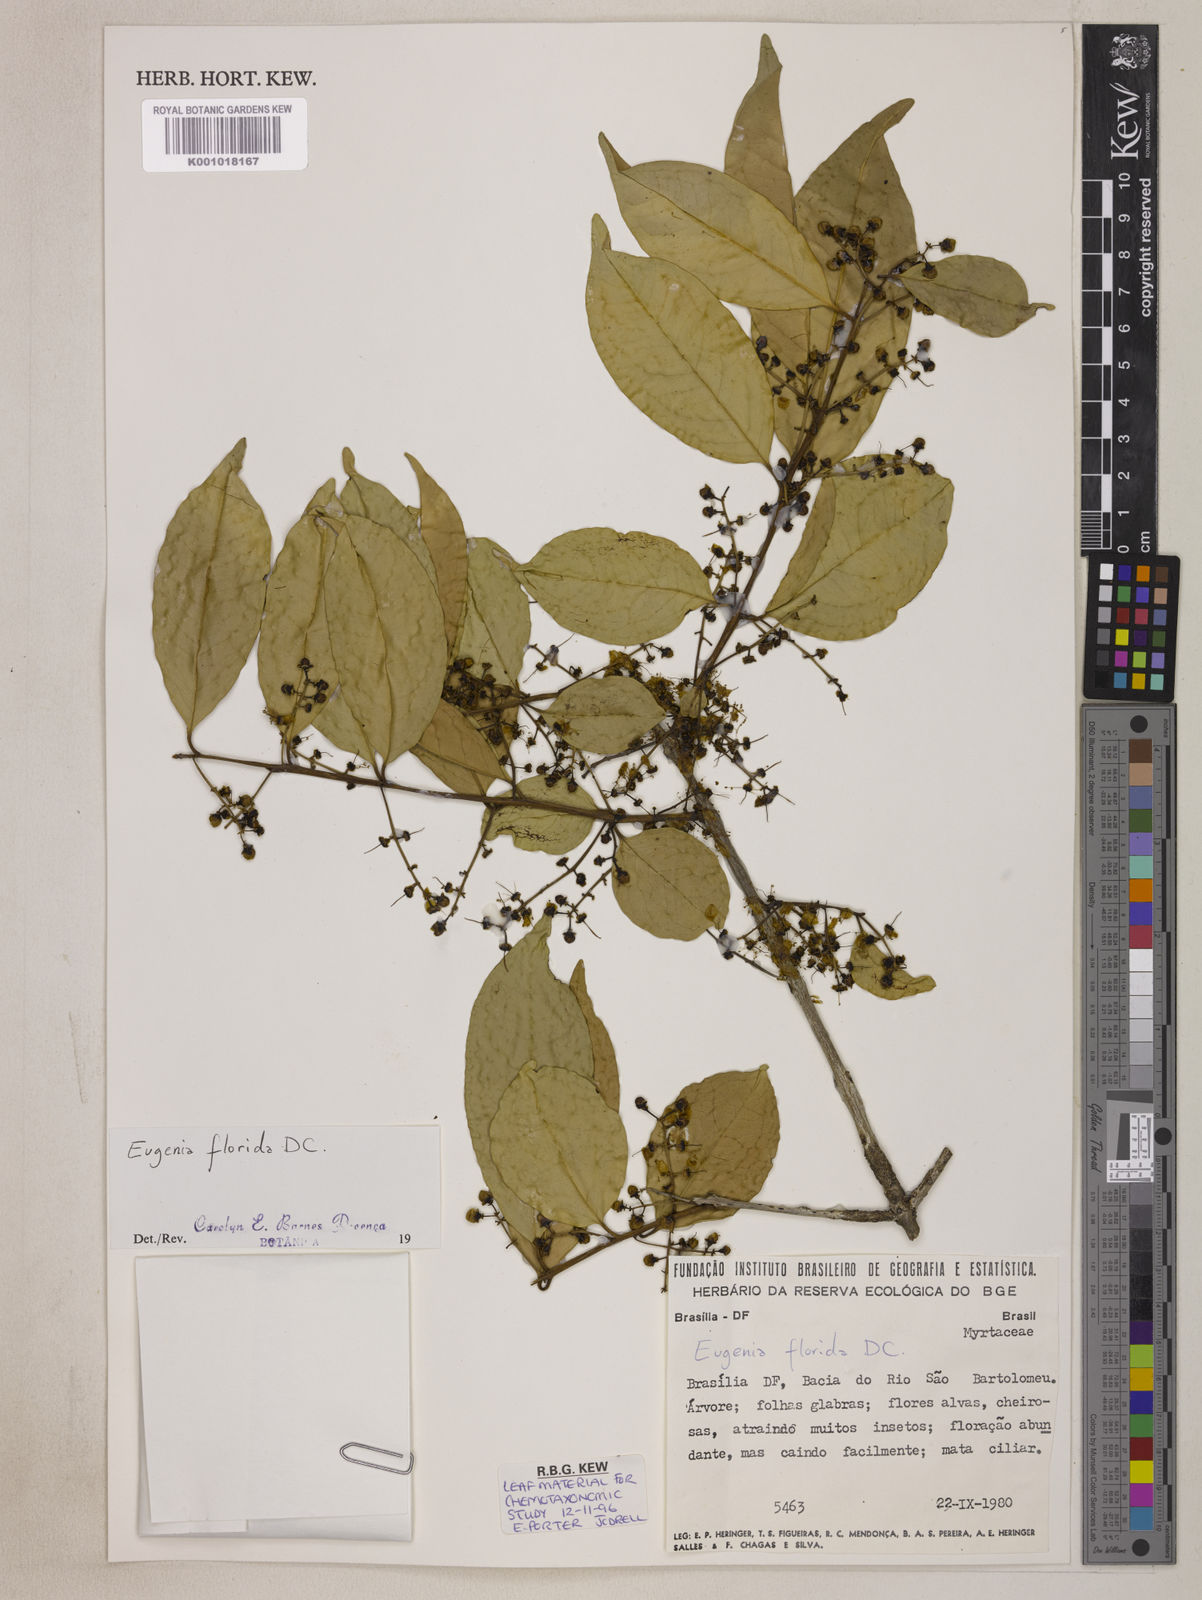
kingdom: Plantae
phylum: Tracheophyta
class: Magnoliopsida
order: Myrtales
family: Myrtaceae
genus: Eugenia
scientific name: Eugenia florida
